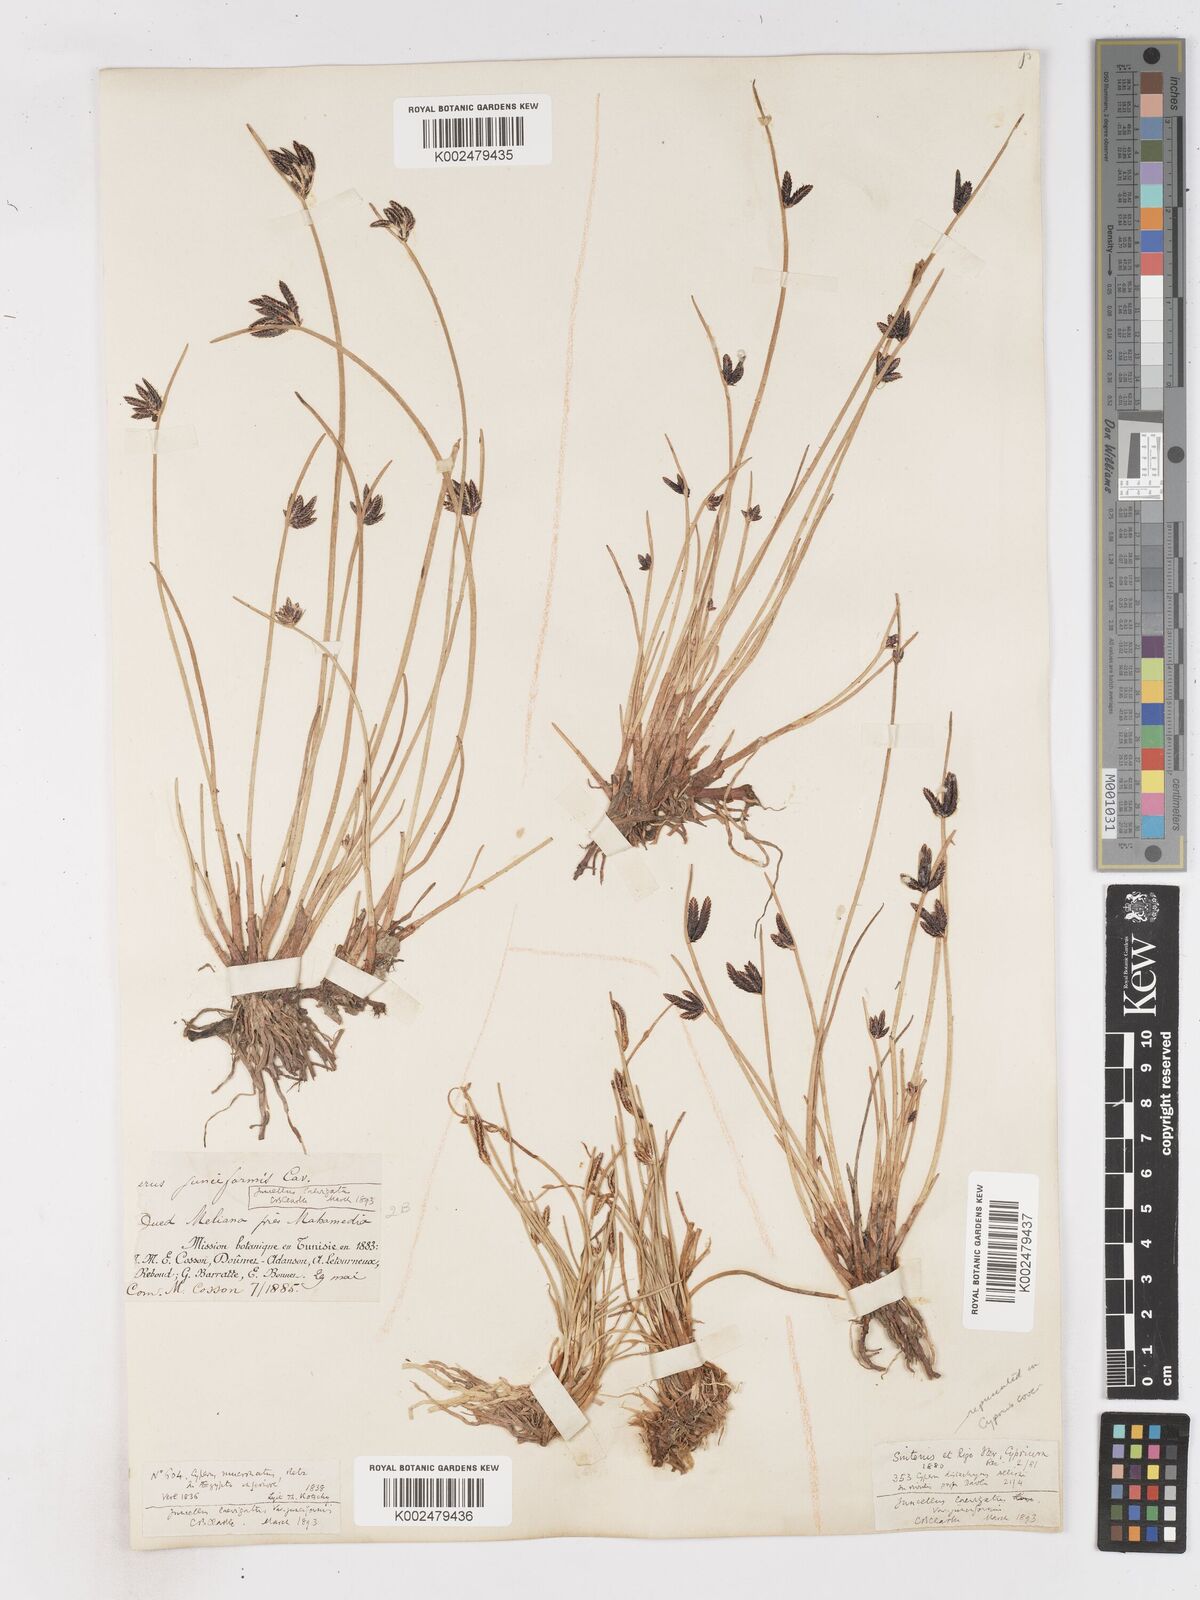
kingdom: Plantae
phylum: Tracheophyta
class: Liliopsida
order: Poales
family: Cyperaceae
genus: Cyperus
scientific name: Cyperus laevigatus
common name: Smooth flat sedge
